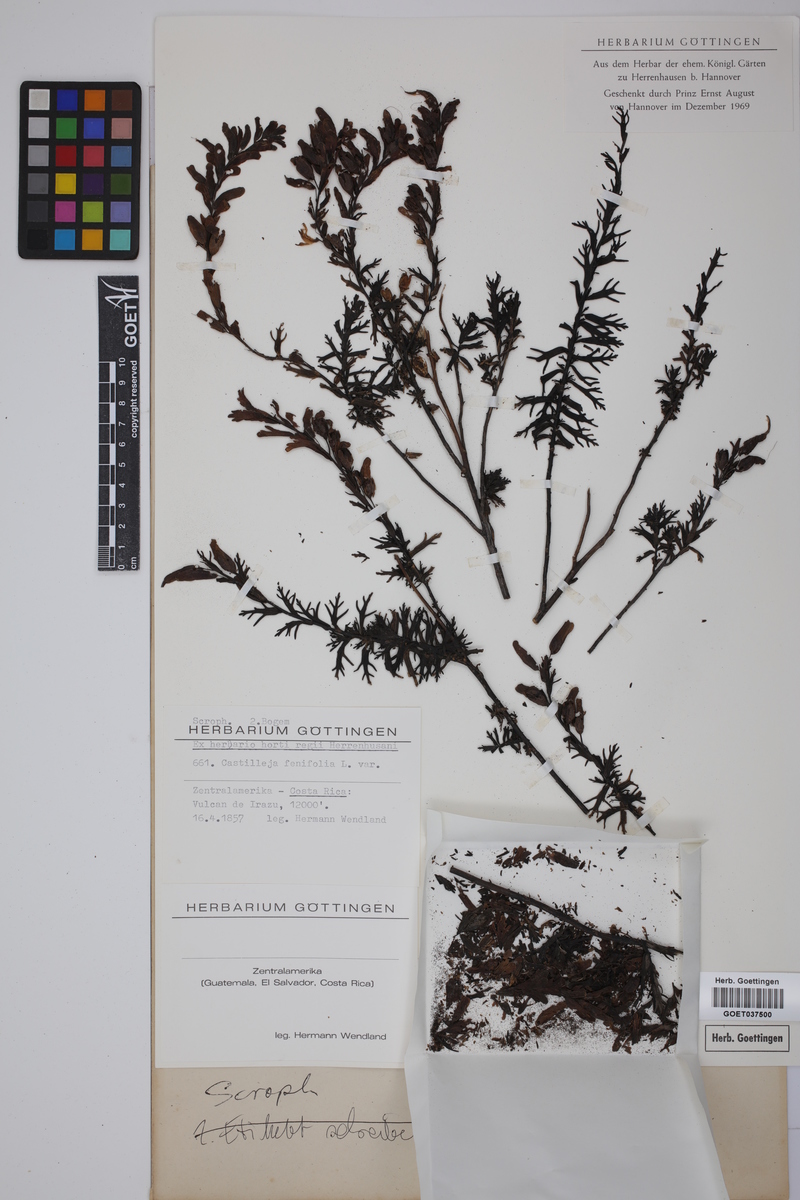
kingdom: Plantae
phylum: Tracheophyta
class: Magnoliopsida
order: Lamiales
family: Orobanchaceae
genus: Castilleja
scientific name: Castilleja fissifolia
